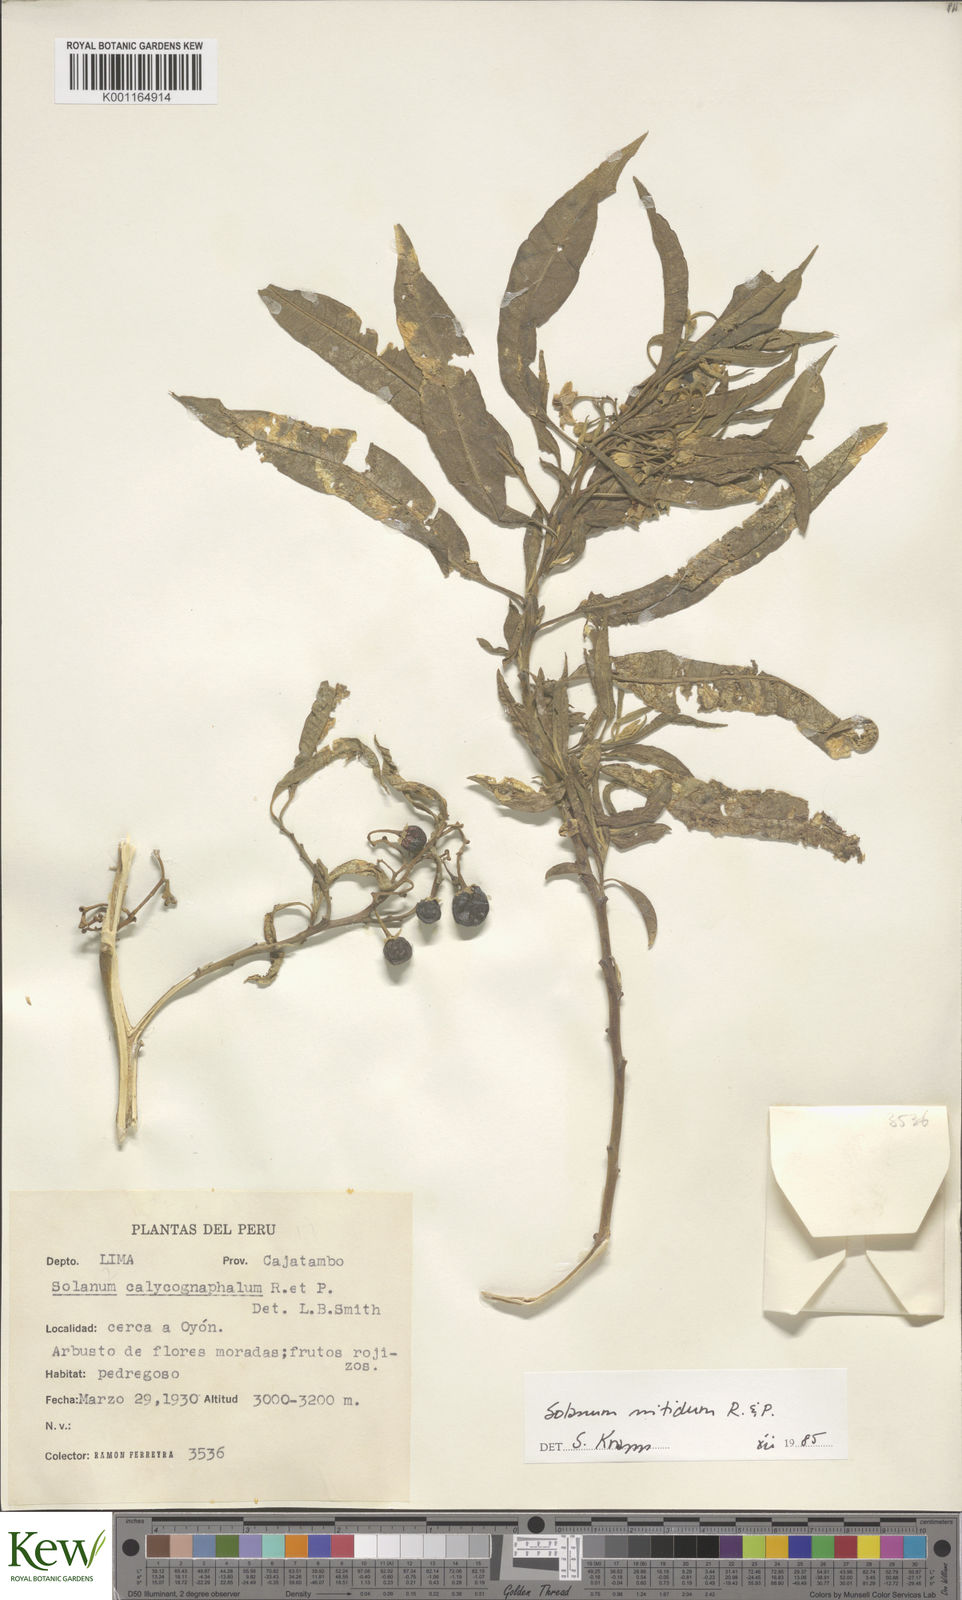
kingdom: Plantae
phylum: Tracheophyta
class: Magnoliopsida
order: Solanales
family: Solanaceae
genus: Solanum
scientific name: Solanum nitidum
